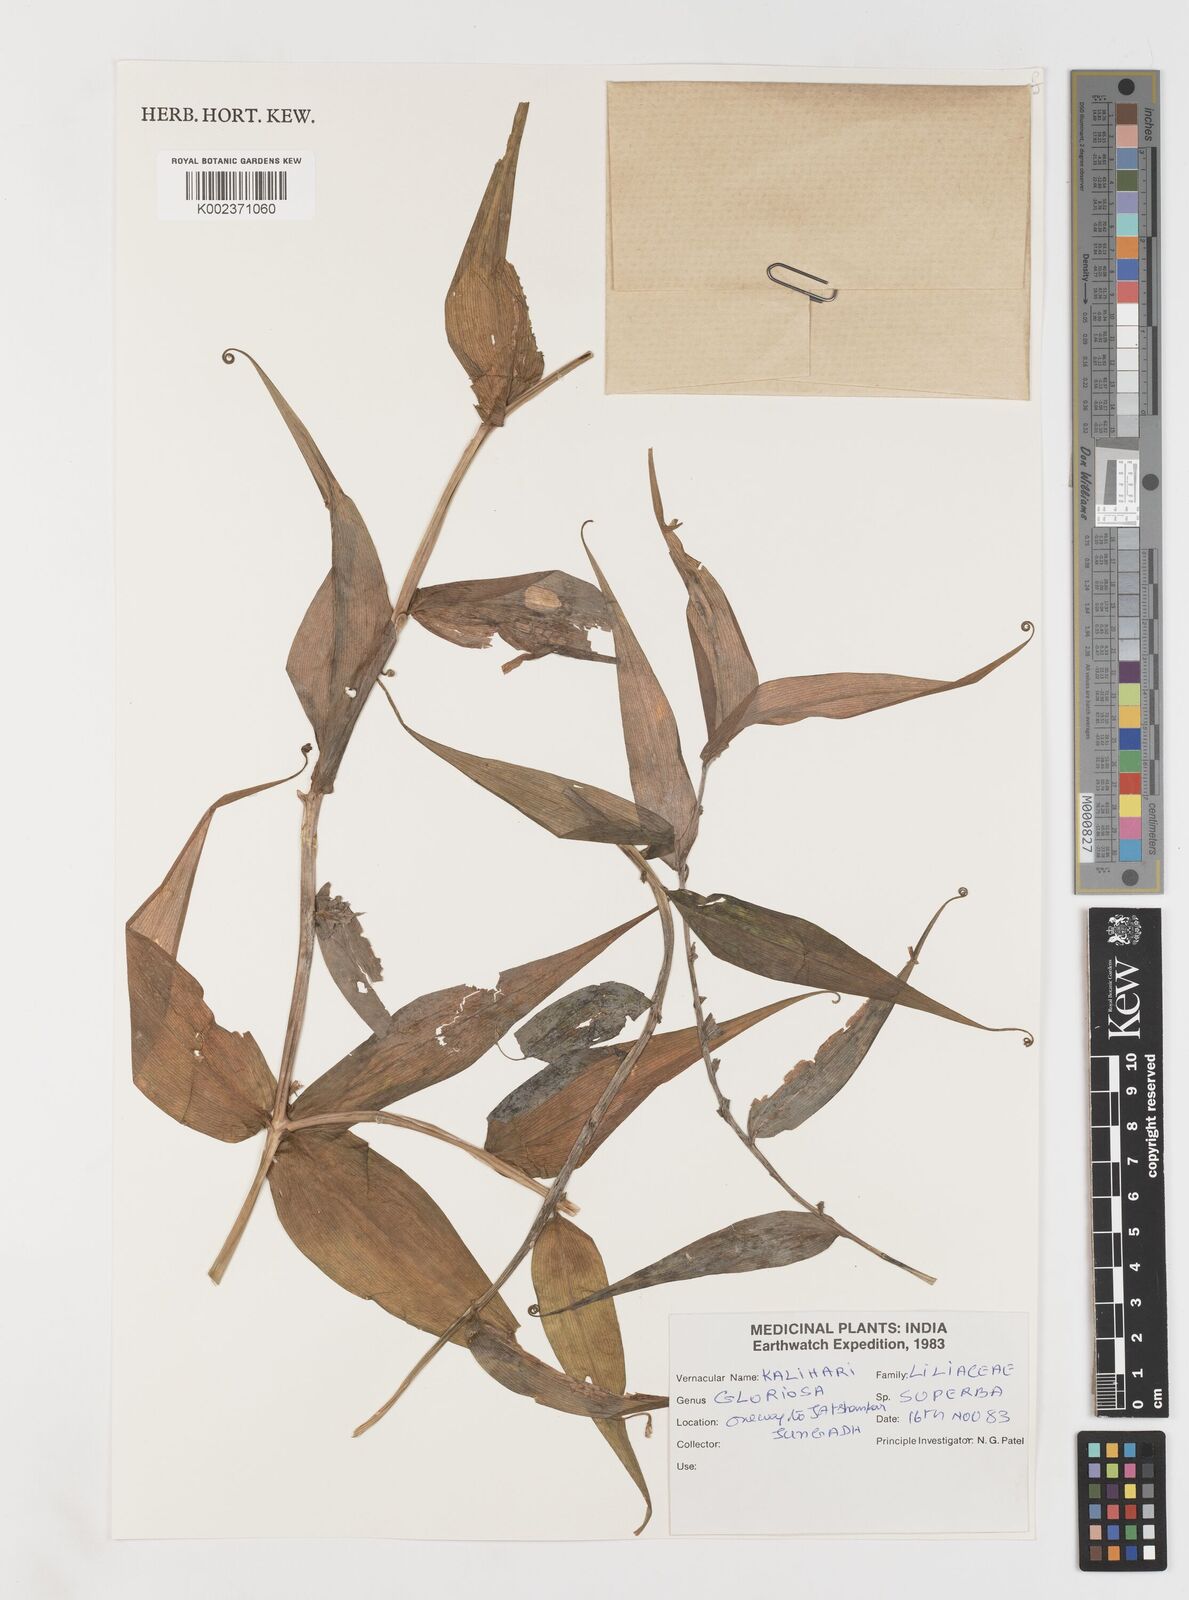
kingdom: Plantae
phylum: Tracheophyta
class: Liliopsida
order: Liliales
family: Colchicaceae
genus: Gloriosa
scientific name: Gloriosa superba
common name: Flame lily
